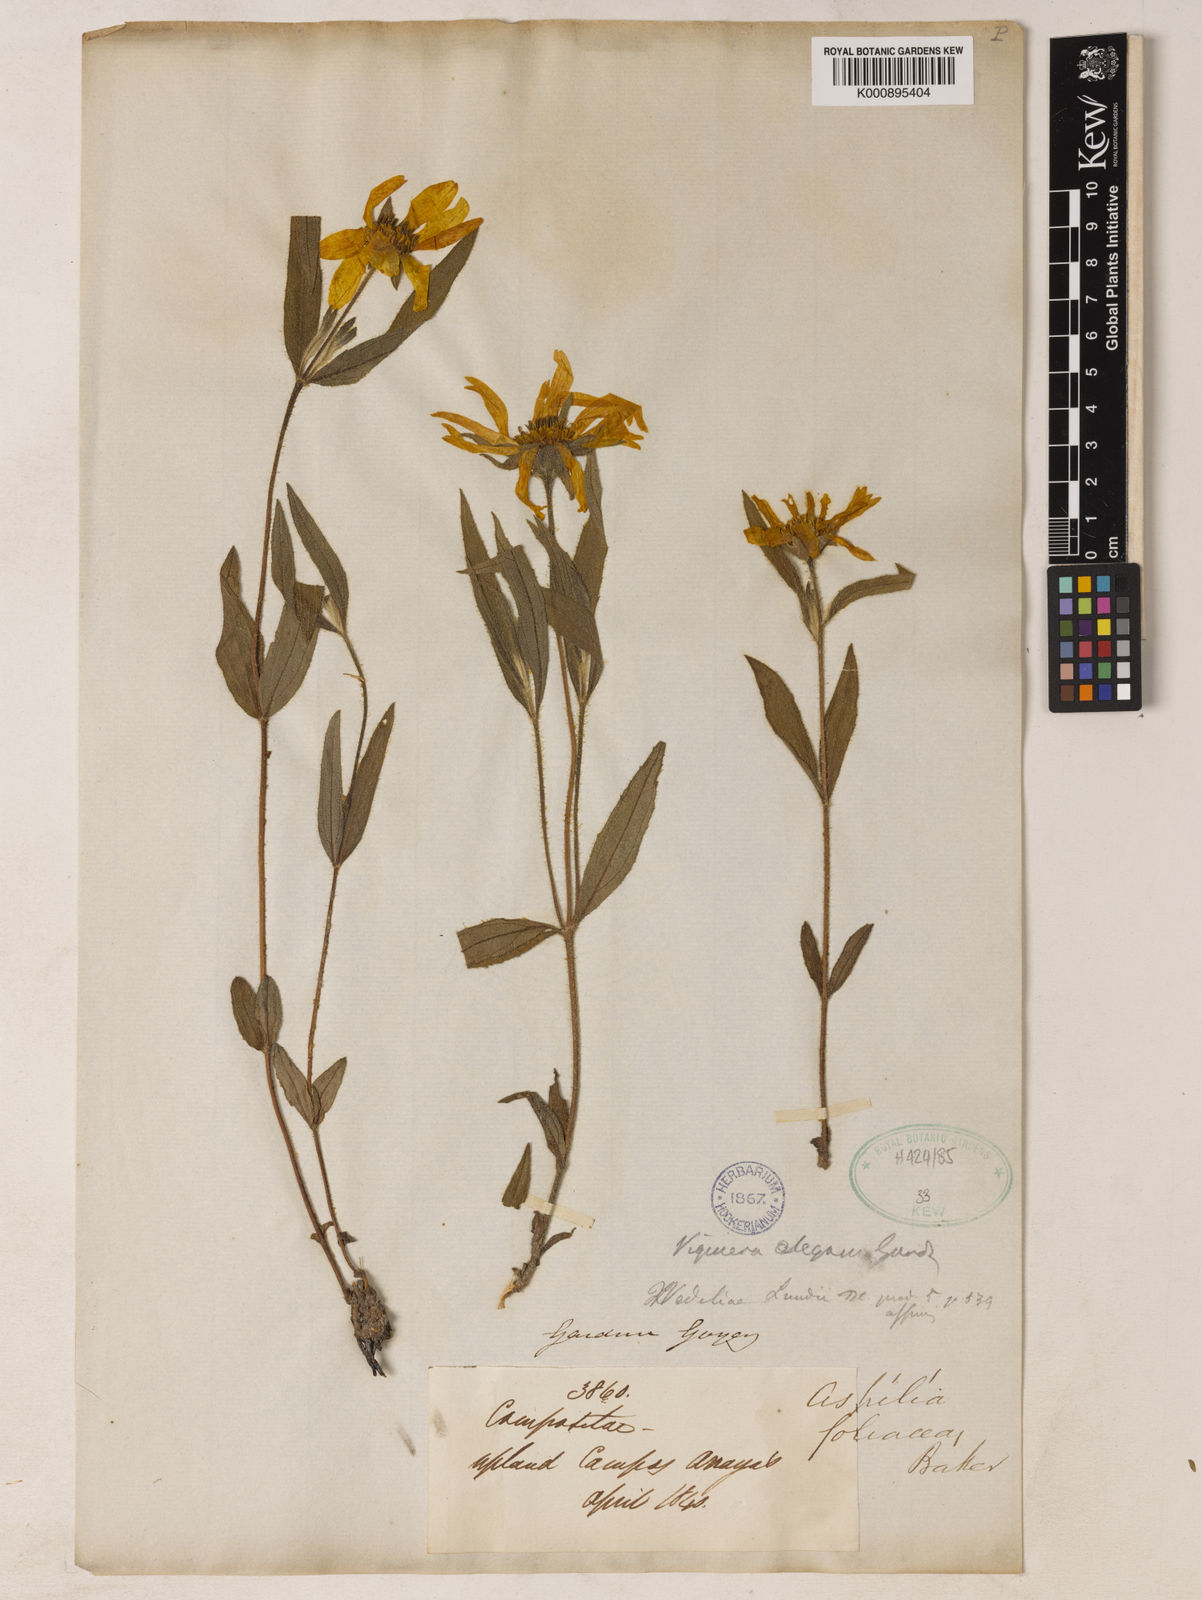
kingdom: Plantae
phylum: Tracheophyta
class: Magnoliopsida
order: Asterales
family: Asteraceae
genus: Wedelia
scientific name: Wedelia foliacea
